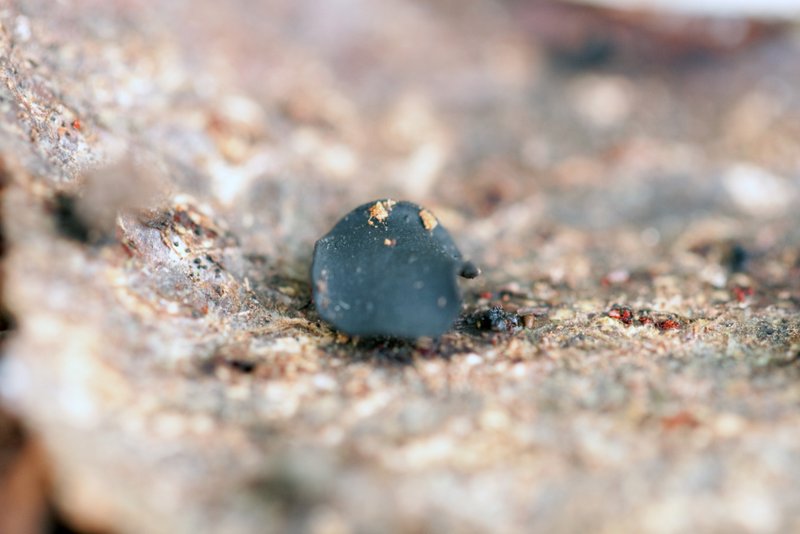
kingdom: Fungi
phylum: Ascomycota
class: Leotiomycetes
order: Helotiales
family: Bulgariaceae
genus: Holwaya
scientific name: Holwaya mucida
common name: lindeskive
